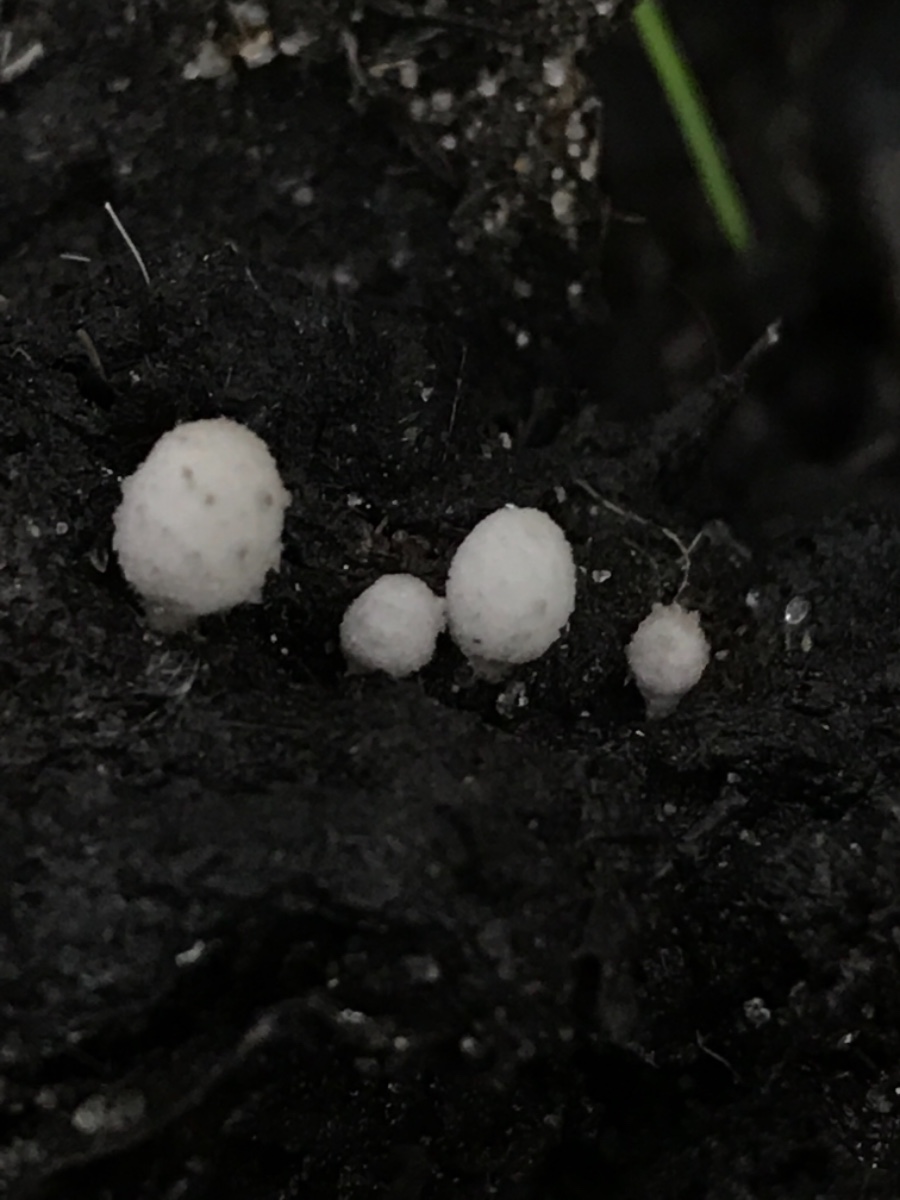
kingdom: Fungi
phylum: Basidiomycota
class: Agaricomycetes
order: Agaricales
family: Psathyrellaceae
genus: Coprinopsis
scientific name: Coprinopsis
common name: blækhat
